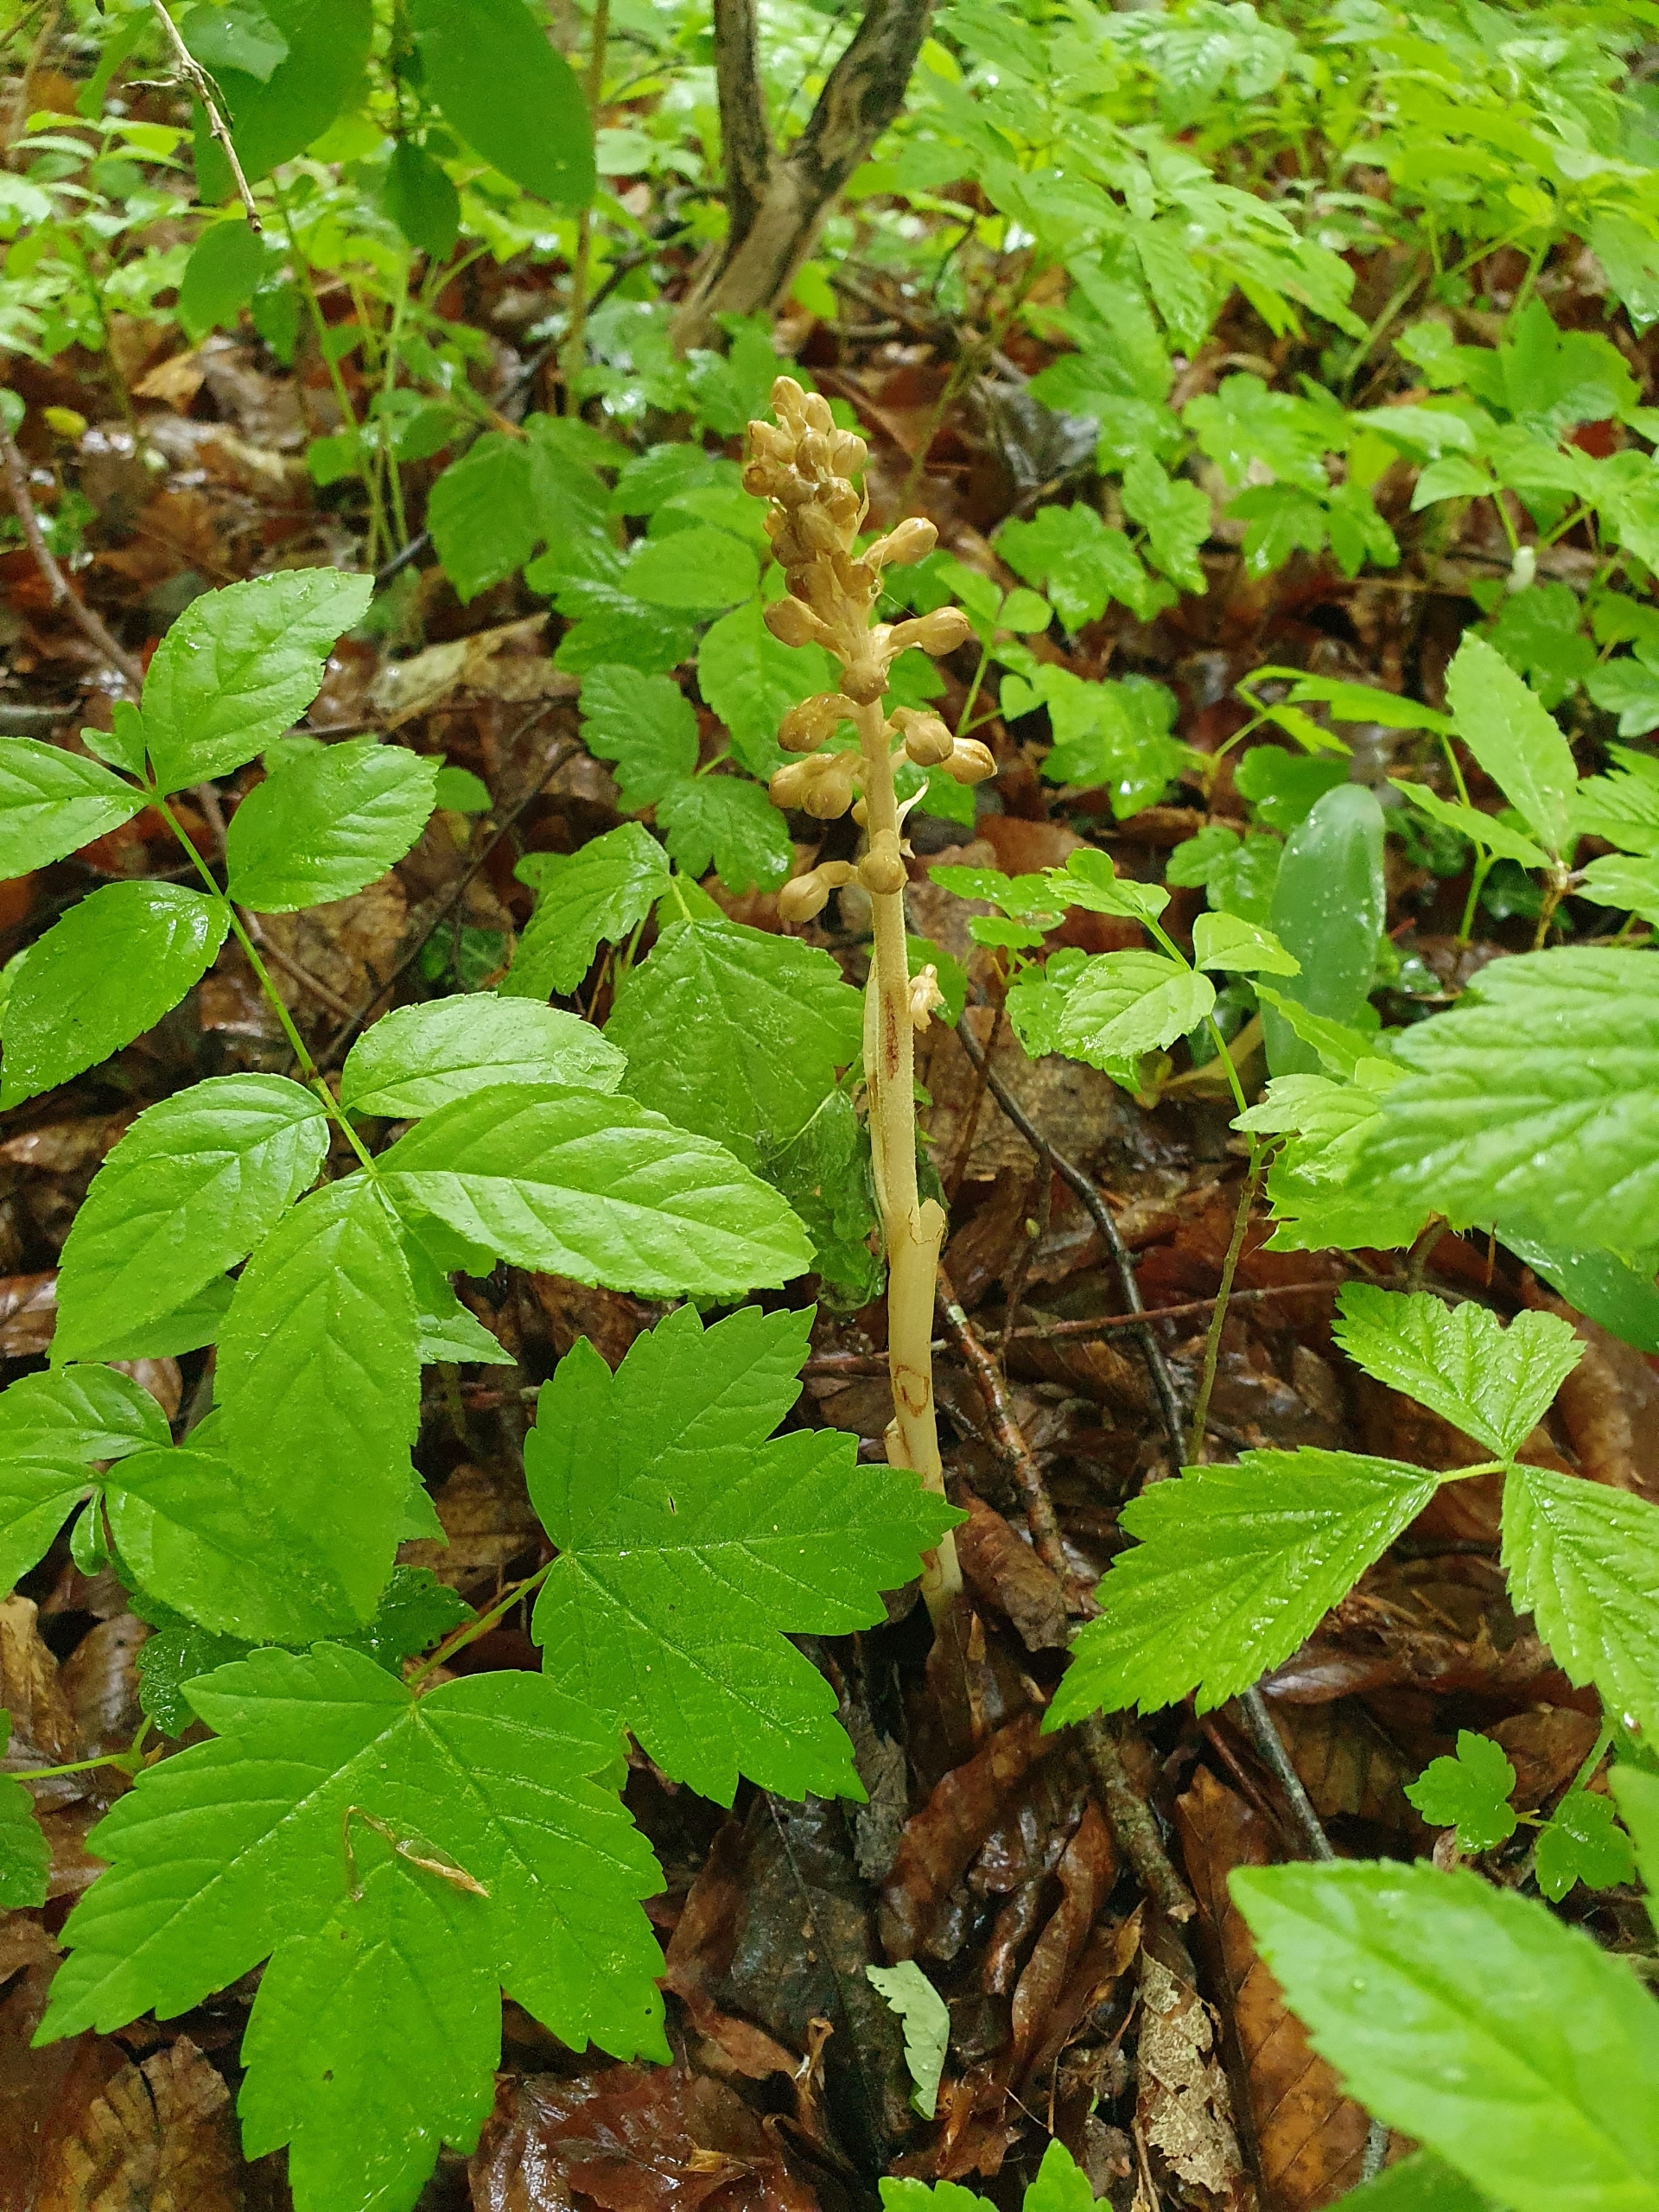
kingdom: Plantae
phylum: Tracheophyta
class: Liliopsida
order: Asparagales
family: Orchidaceae
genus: Neottia
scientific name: Neottia nidus-avis
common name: Rederod
